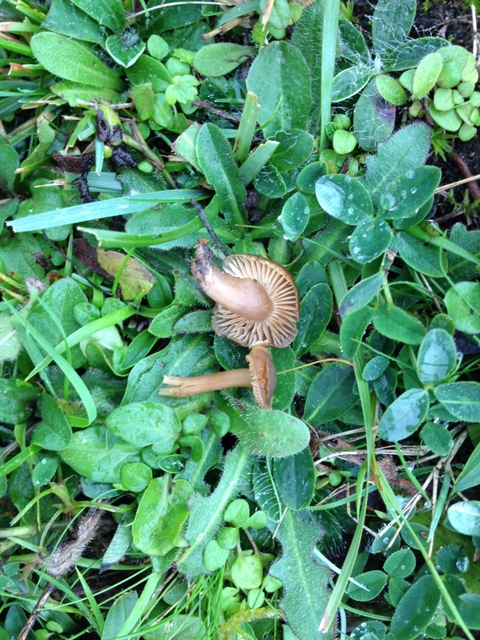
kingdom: Fungi
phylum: Basidiomycota
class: Agaricomycetes
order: Agaricales
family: Clavariaceae
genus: Camarophyllopsis
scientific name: Camarophyllopsis schulzeri
